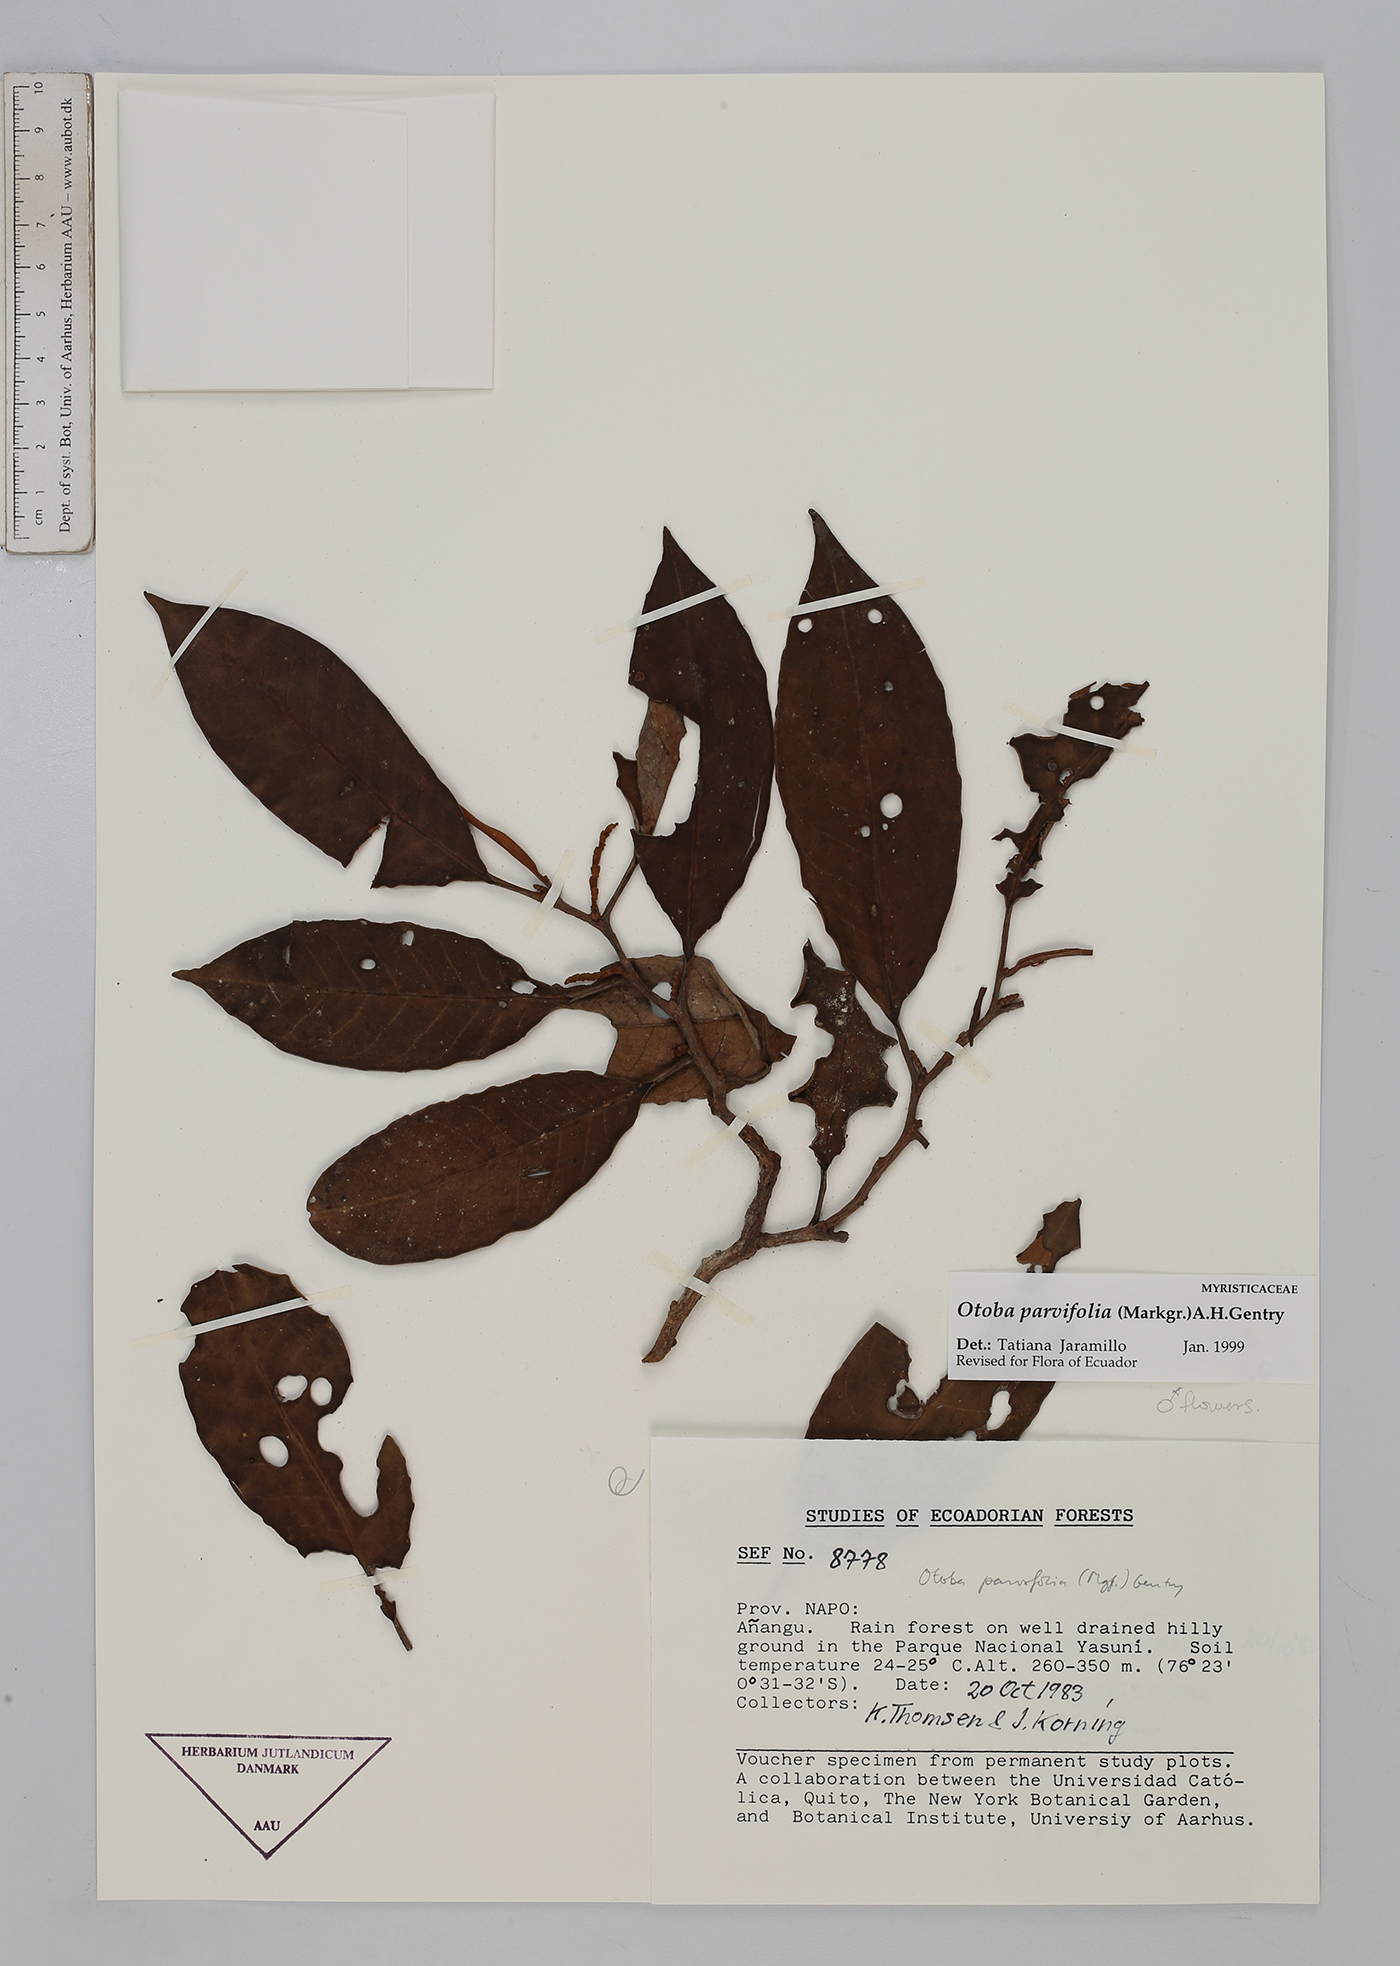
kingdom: Plantae
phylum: Tracheophyta
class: Magnoliopsida
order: Magnoliales
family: Myristicaceae
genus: Otoba
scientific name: Otoba parvifolia
